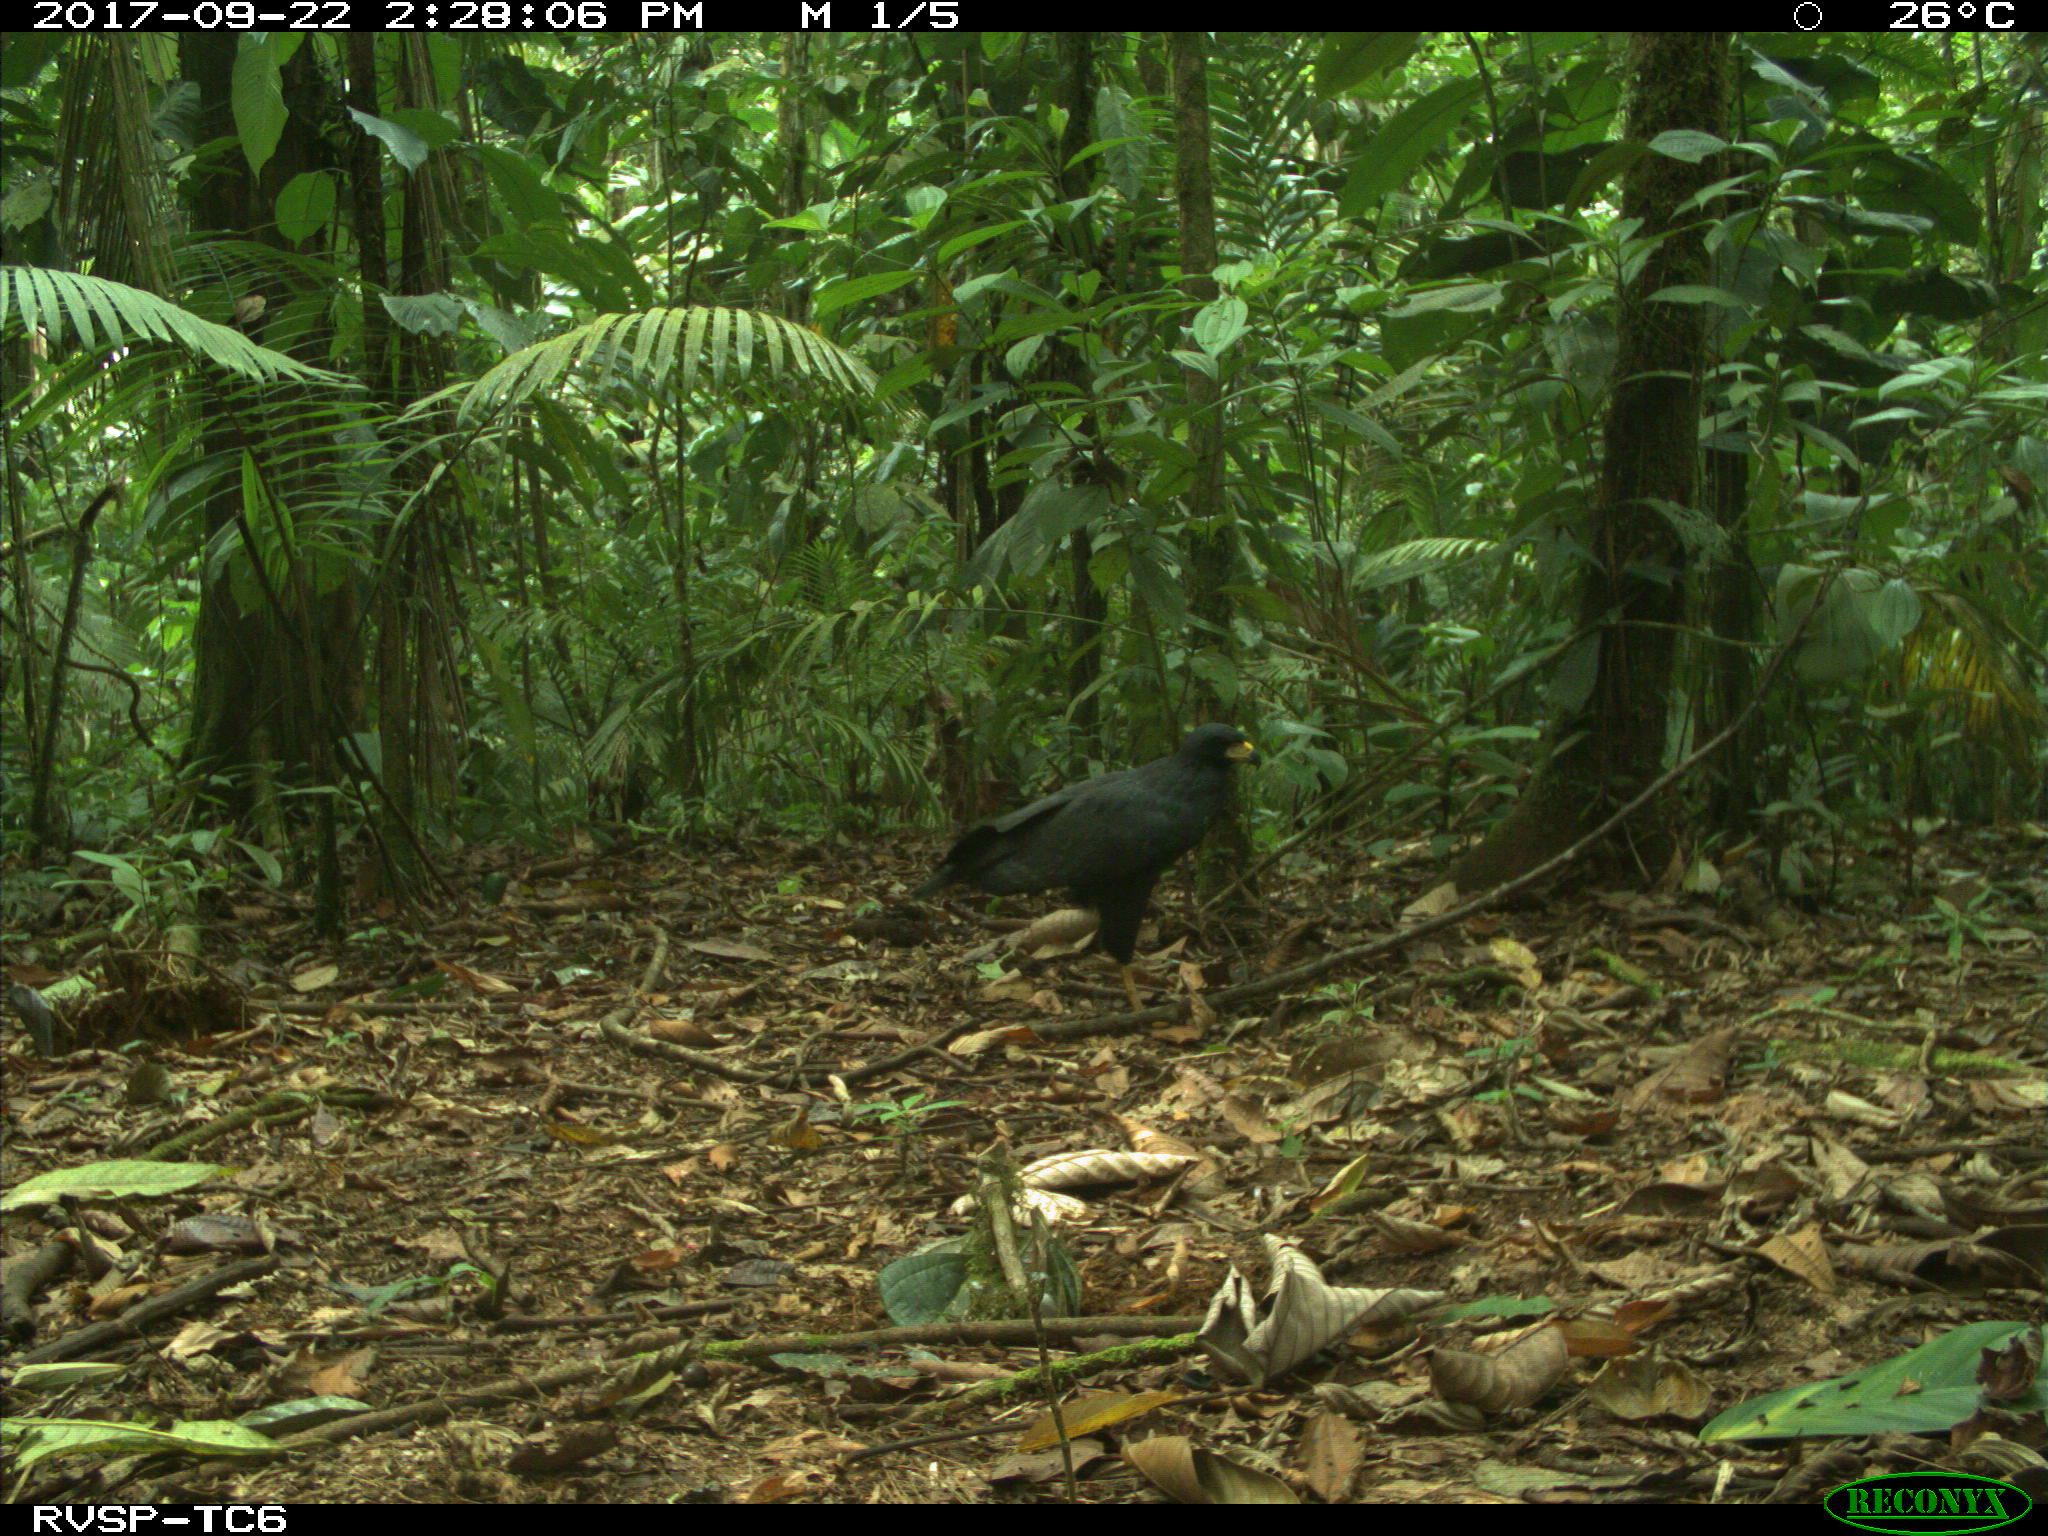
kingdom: Animalia
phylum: Chordata
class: Aves
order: Accipitriformes
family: Accipitridae
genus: Buteogallus
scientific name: Buteogallus urubitinga
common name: Great black hawk
